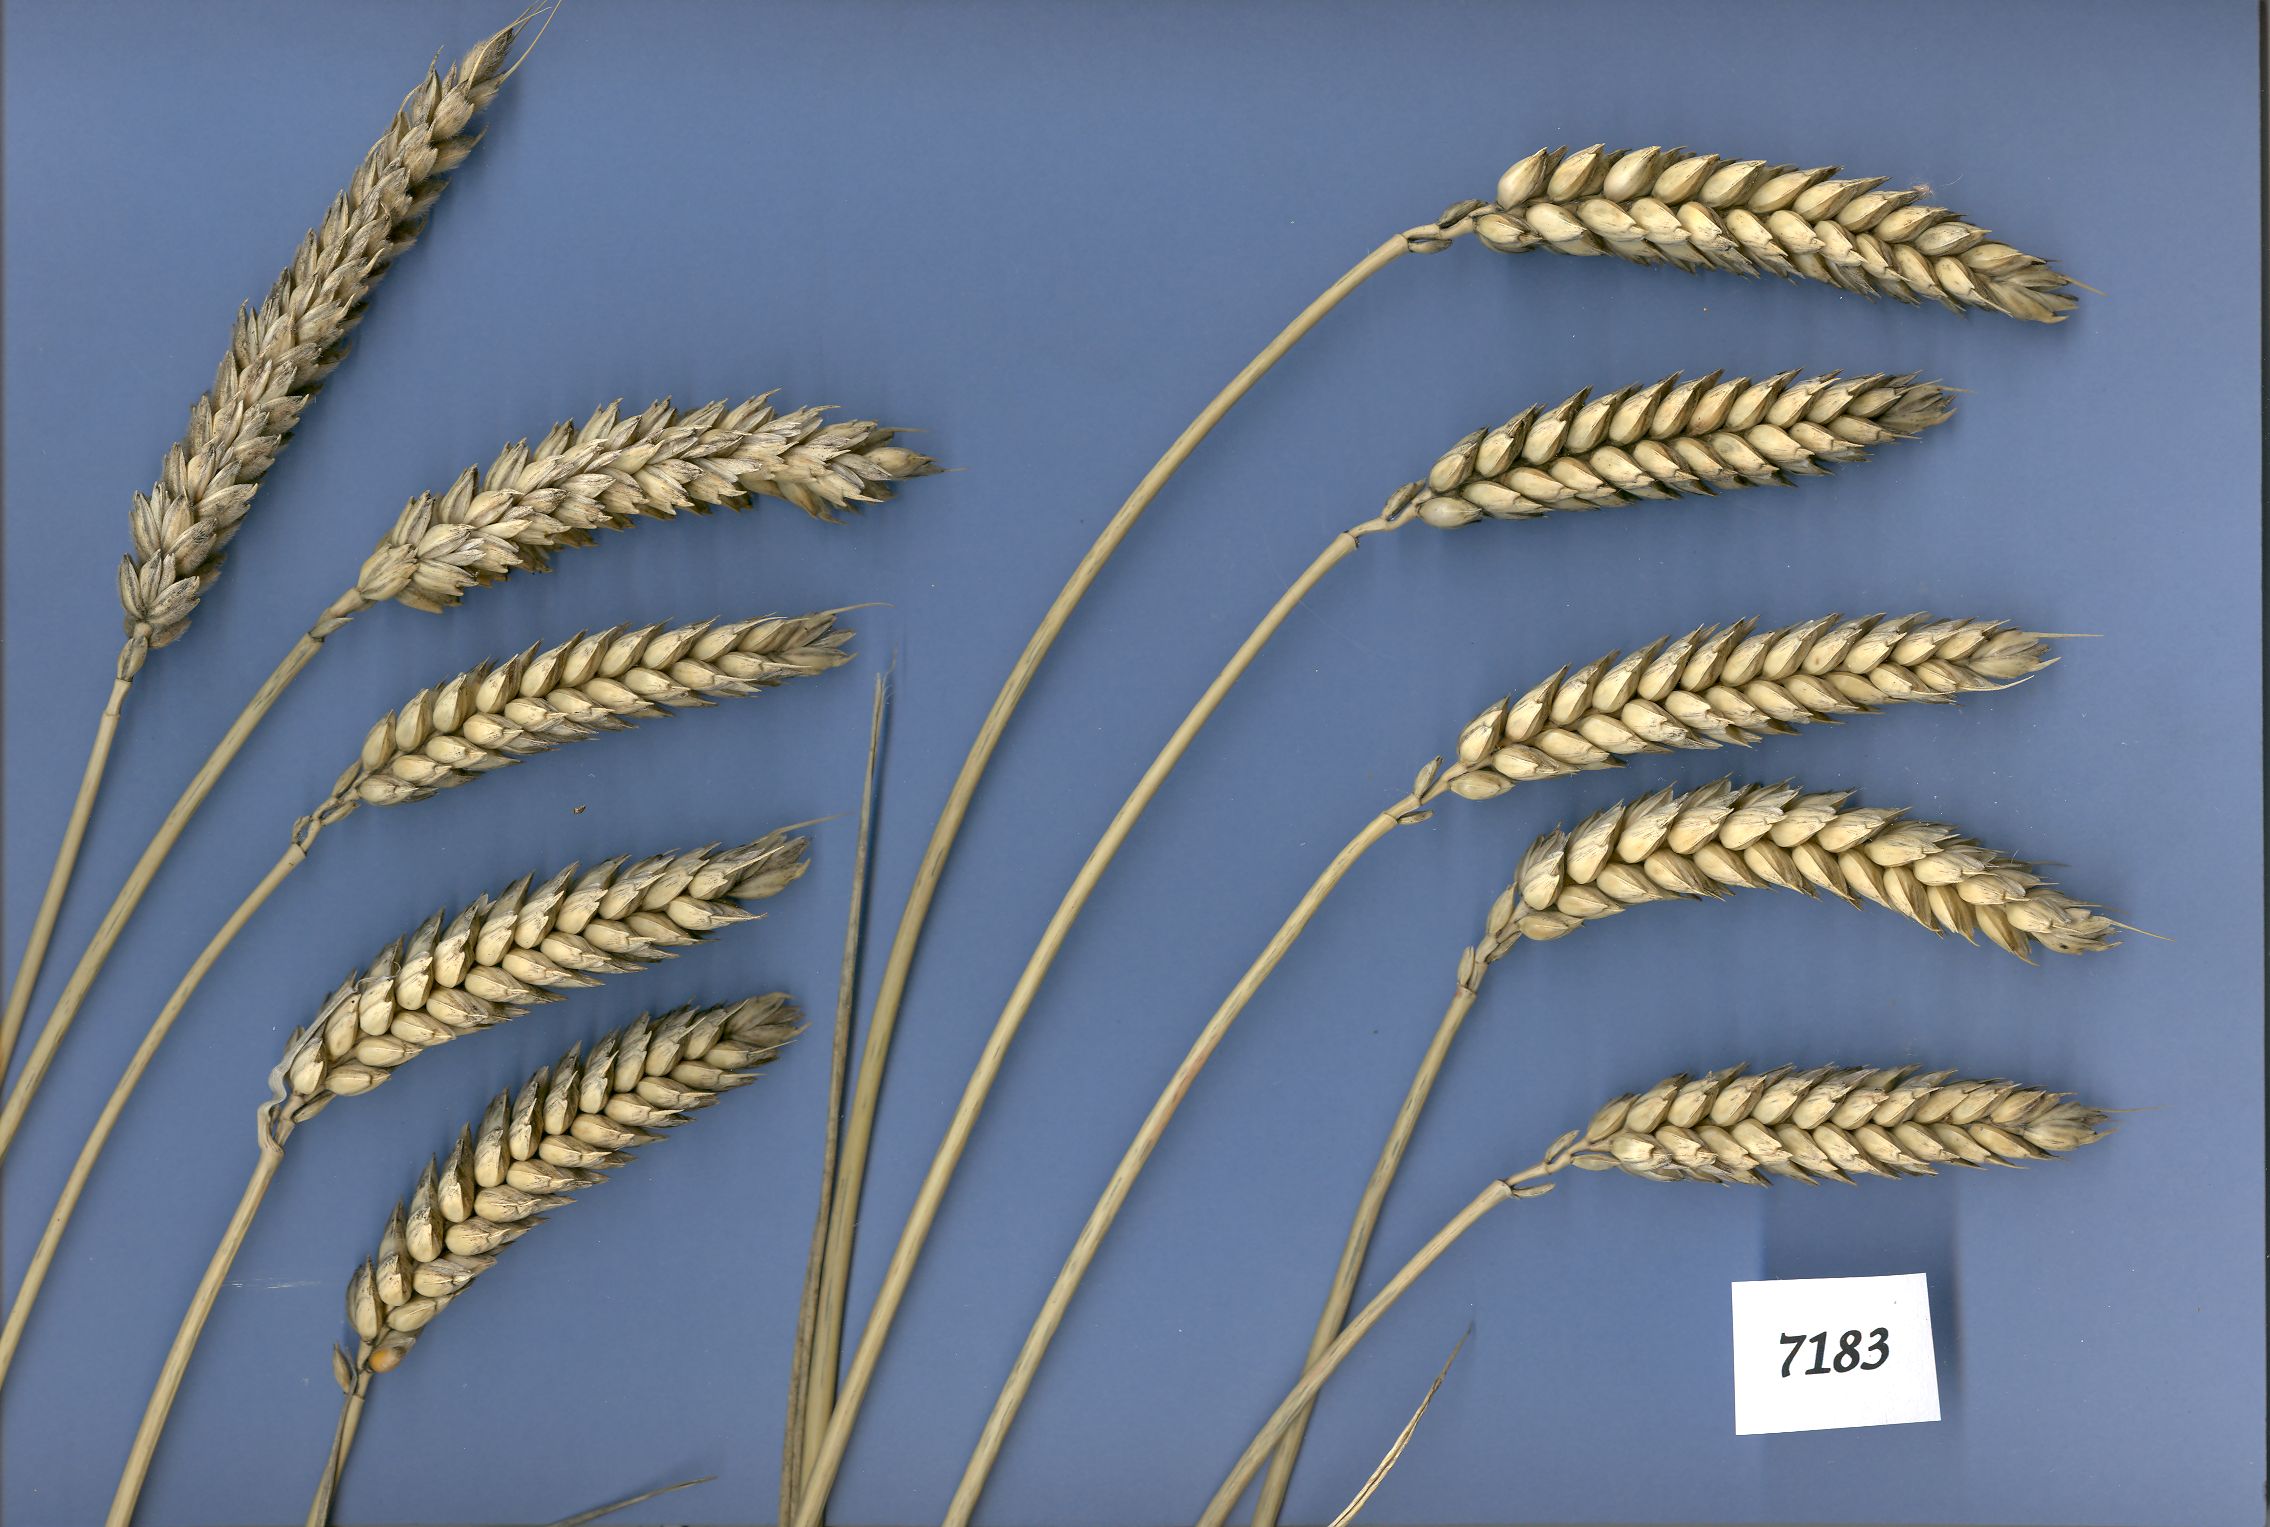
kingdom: Plantae
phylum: Tracheophyta
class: Liliopsida
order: Poales
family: Poaceae
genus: Triticum
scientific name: Triticum aestivum
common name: Common wheat
